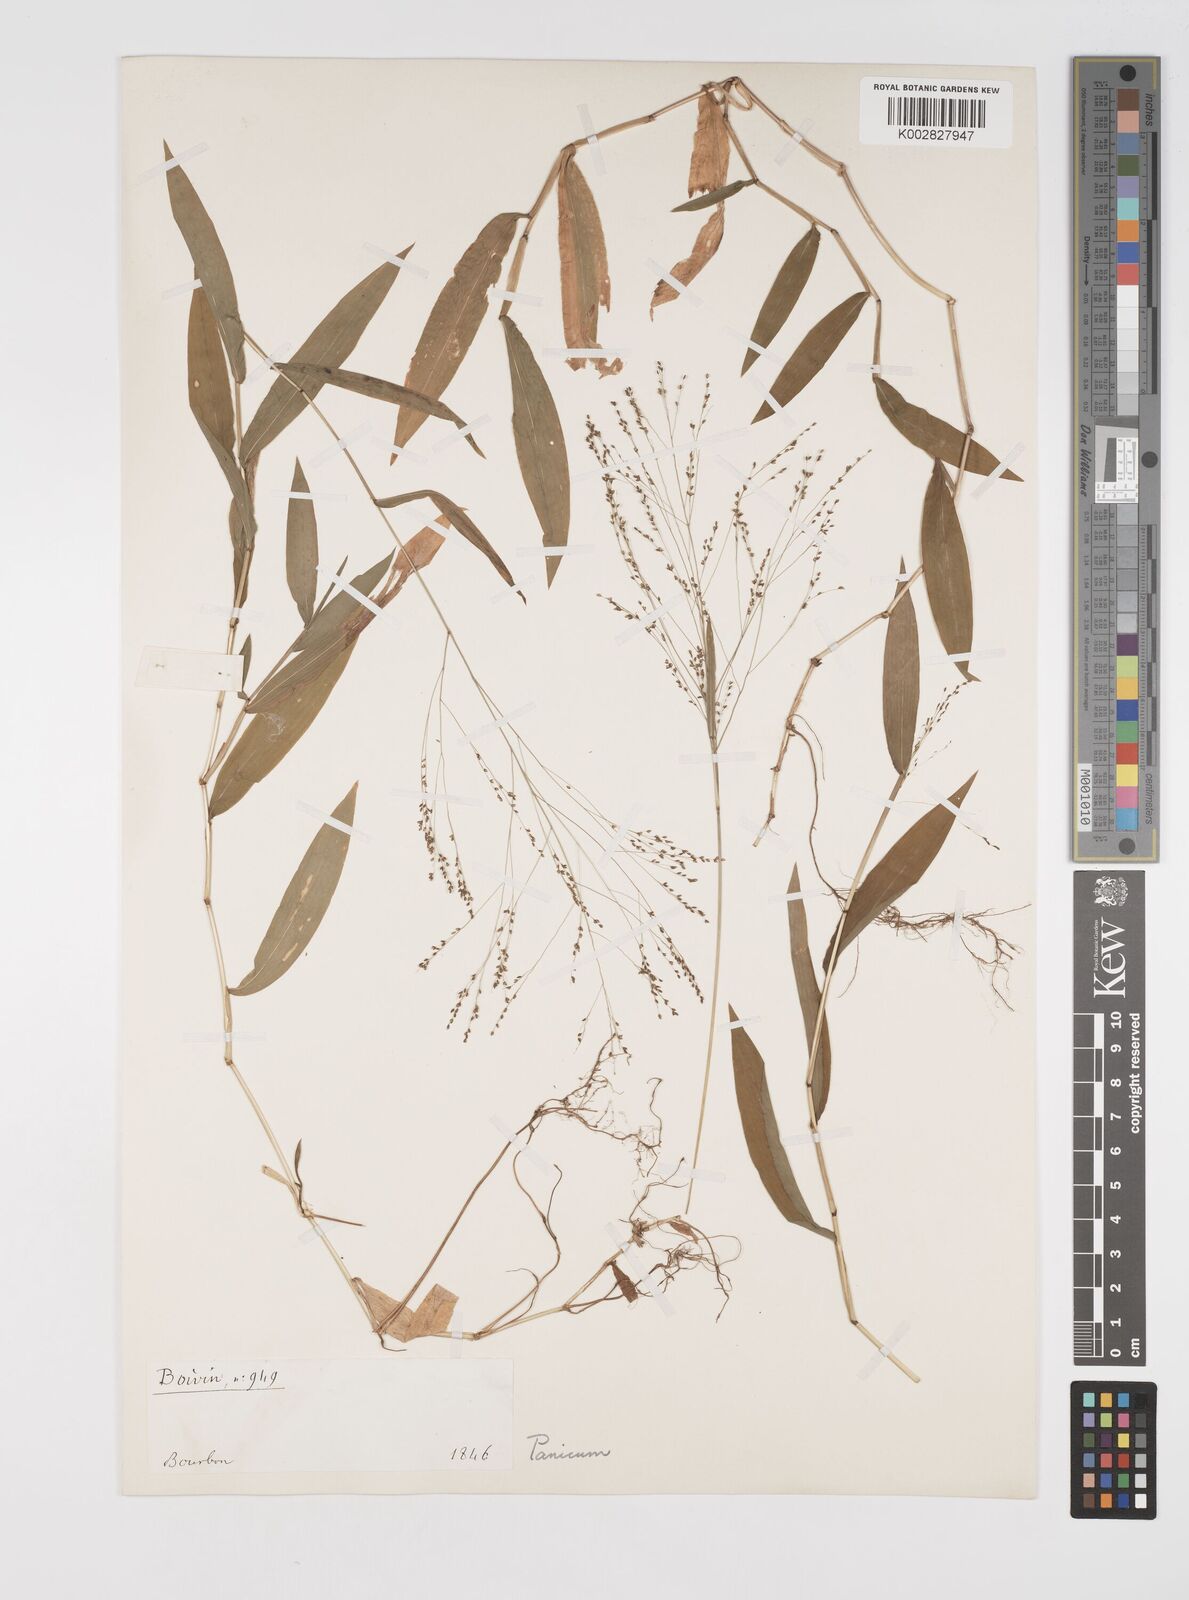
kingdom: Plantae
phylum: Tracheophyta
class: Liliopsida
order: Poales
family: Poaceae
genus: Cyrtococcum
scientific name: Cyrtococcum multinode
